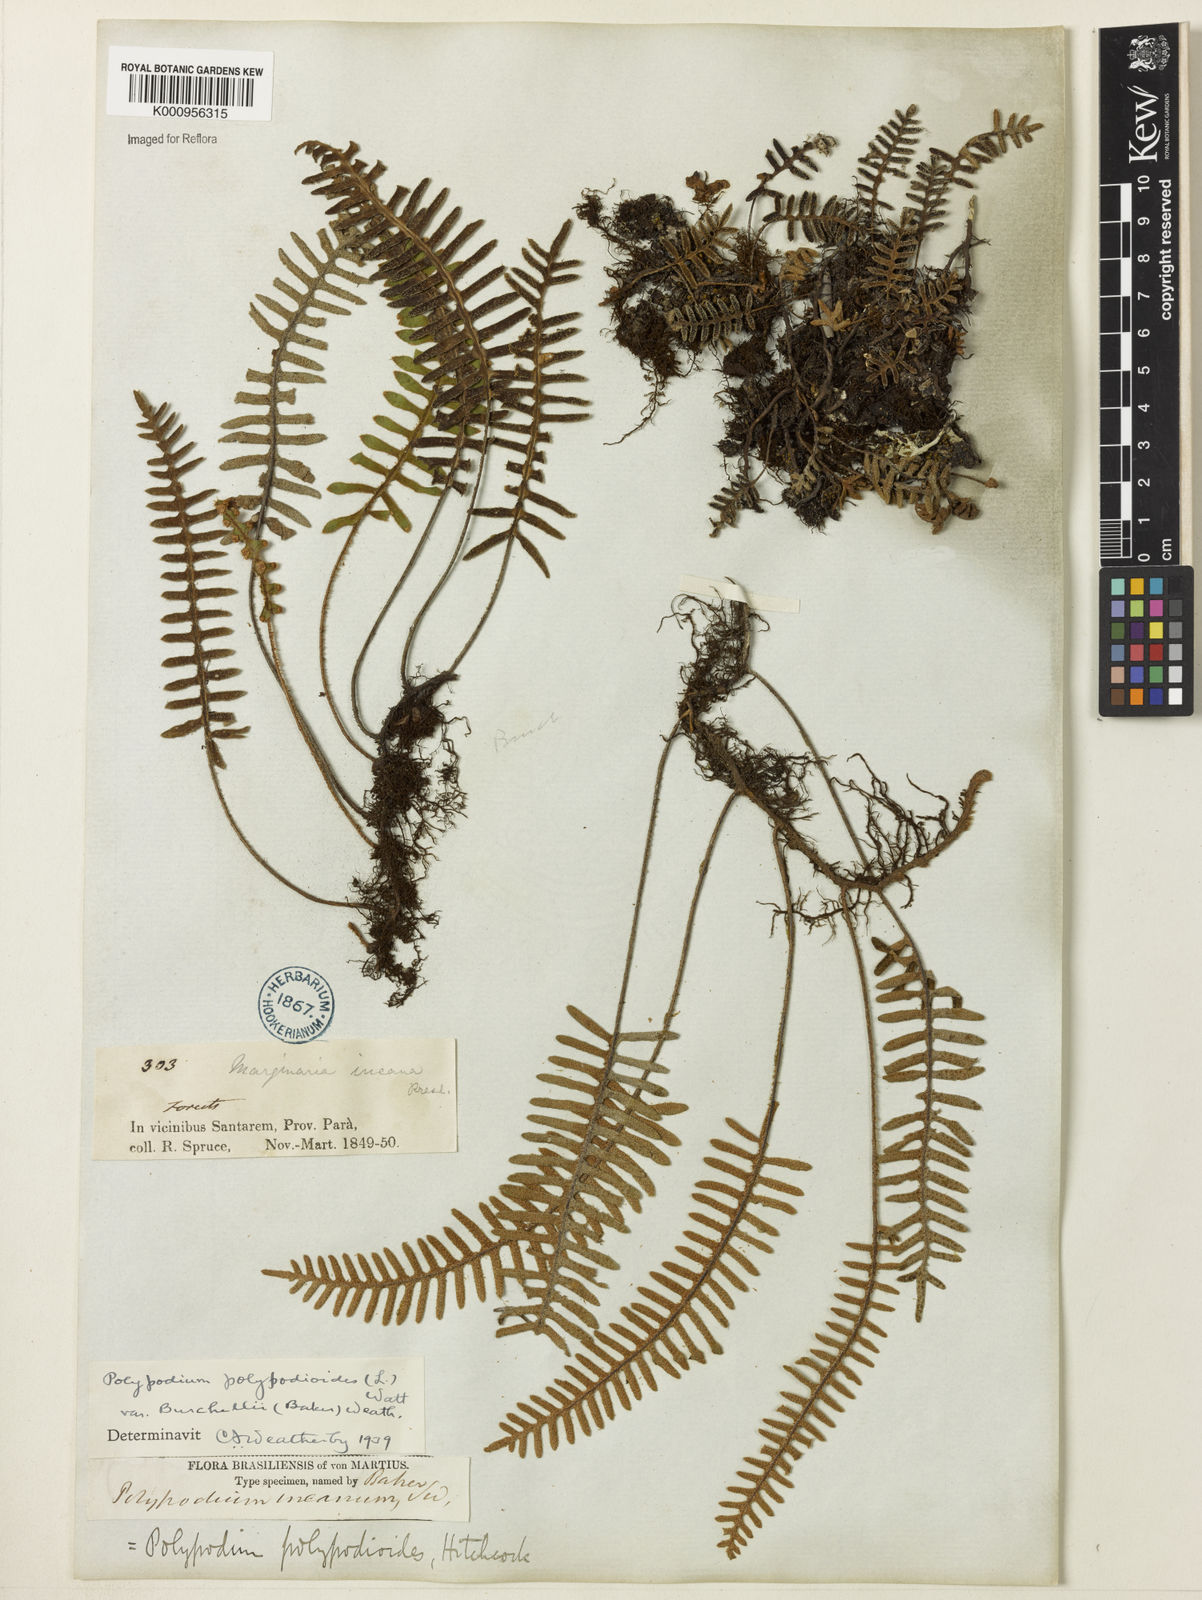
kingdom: Plantae
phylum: Tracheophyta
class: Polypodiopsida
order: Polypodiales
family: Polypodiaceae
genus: Pleopeltis
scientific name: Pleopeltis burchellii
